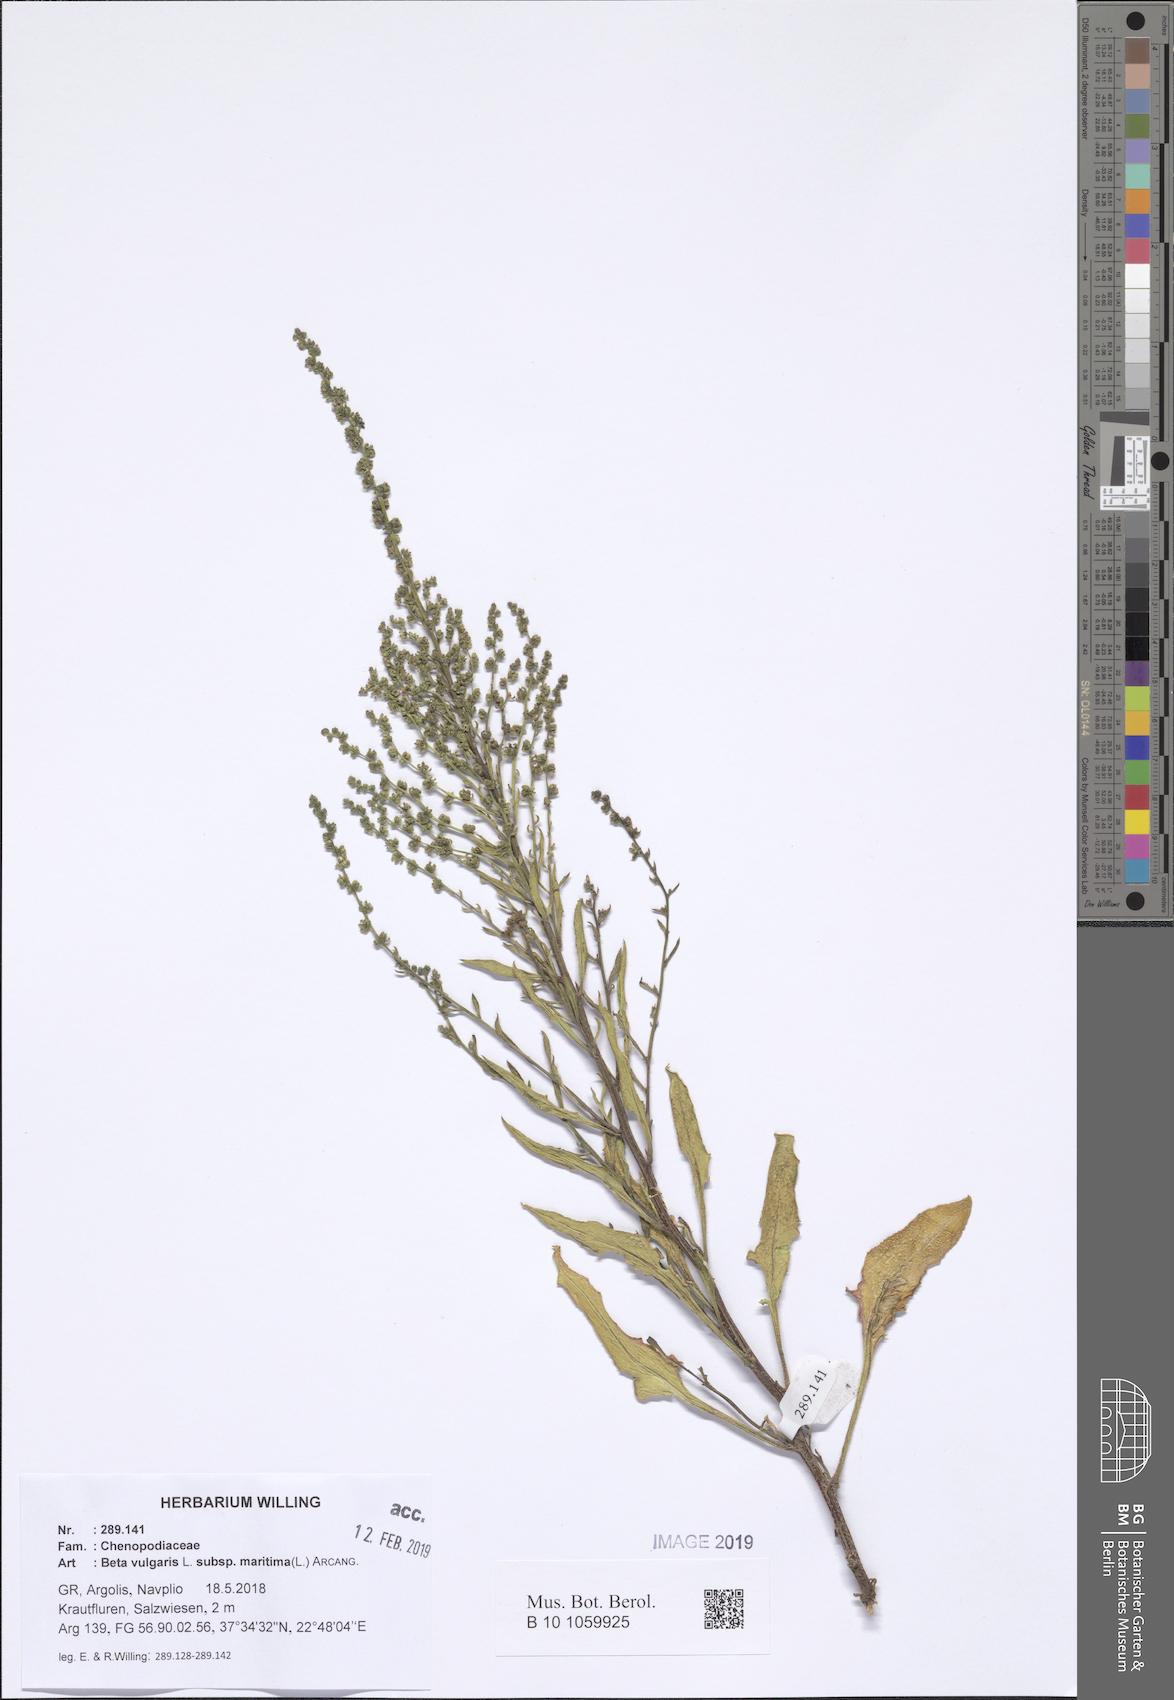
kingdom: Plantae
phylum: Tracheophyta
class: Magnoliopsida
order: Caryophyllales
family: Amaranthaceae
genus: Beta
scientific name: Beta maritima
